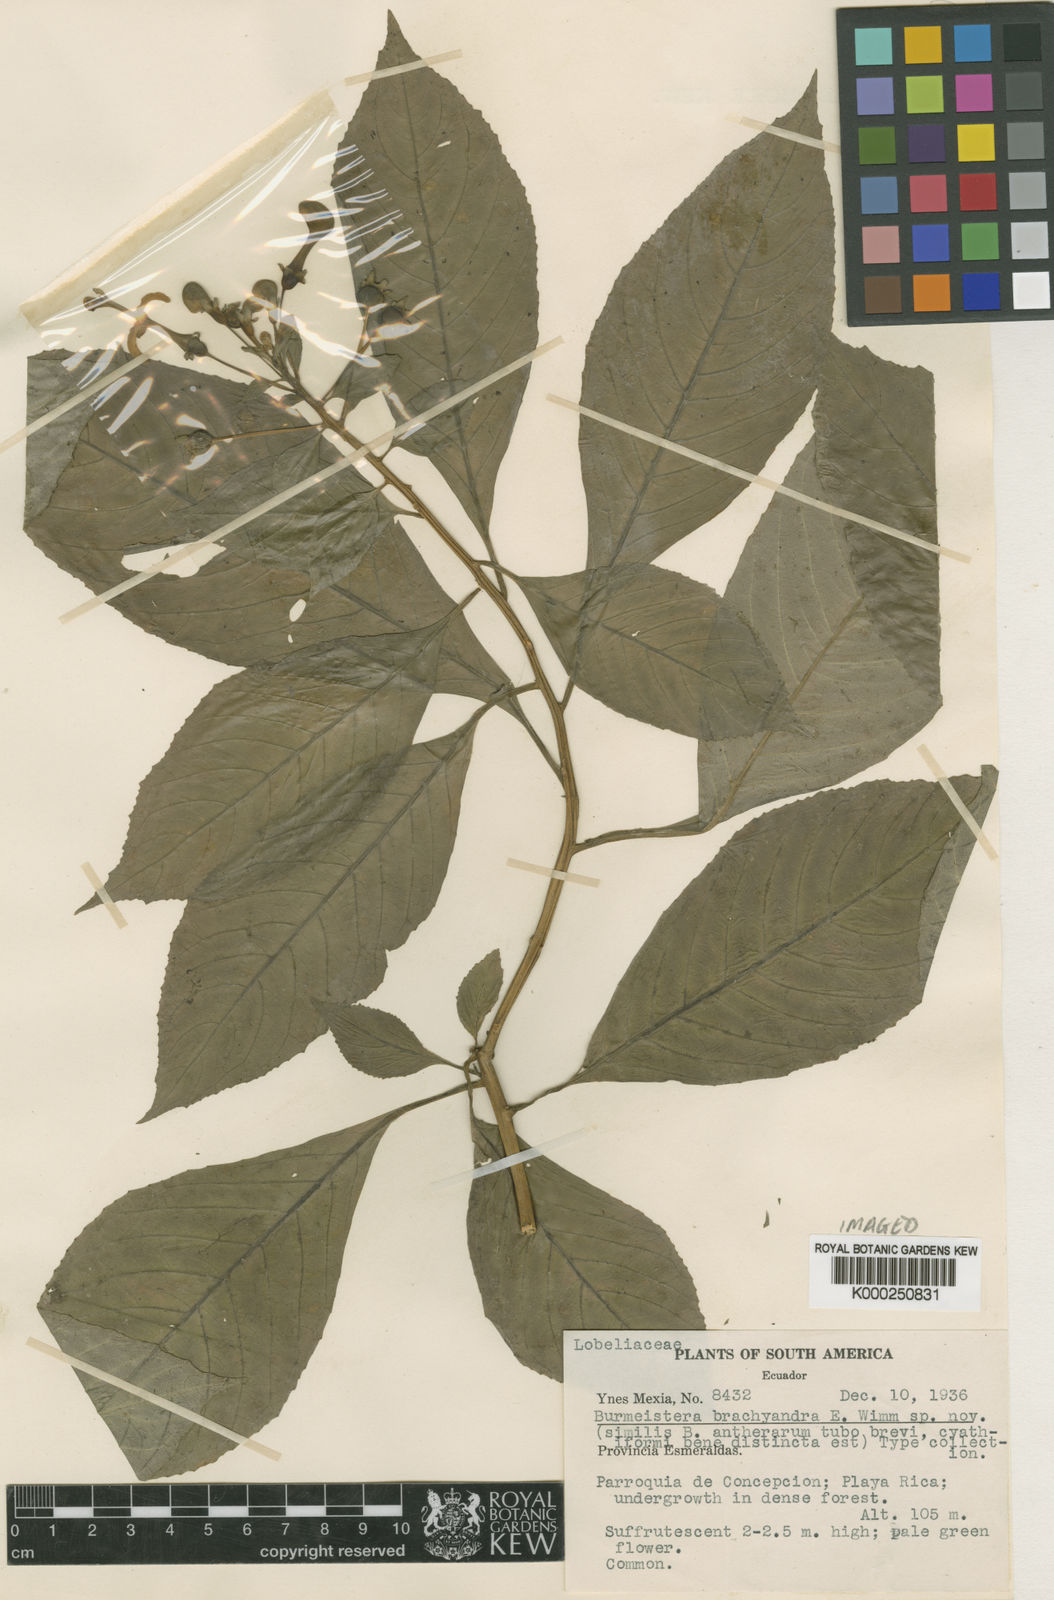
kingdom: Plantae
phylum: Tracheophyta
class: Magnoliopsida
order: Asterales
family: Campanulaceae
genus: Burmeistera
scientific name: Burmeistera brachyandra
